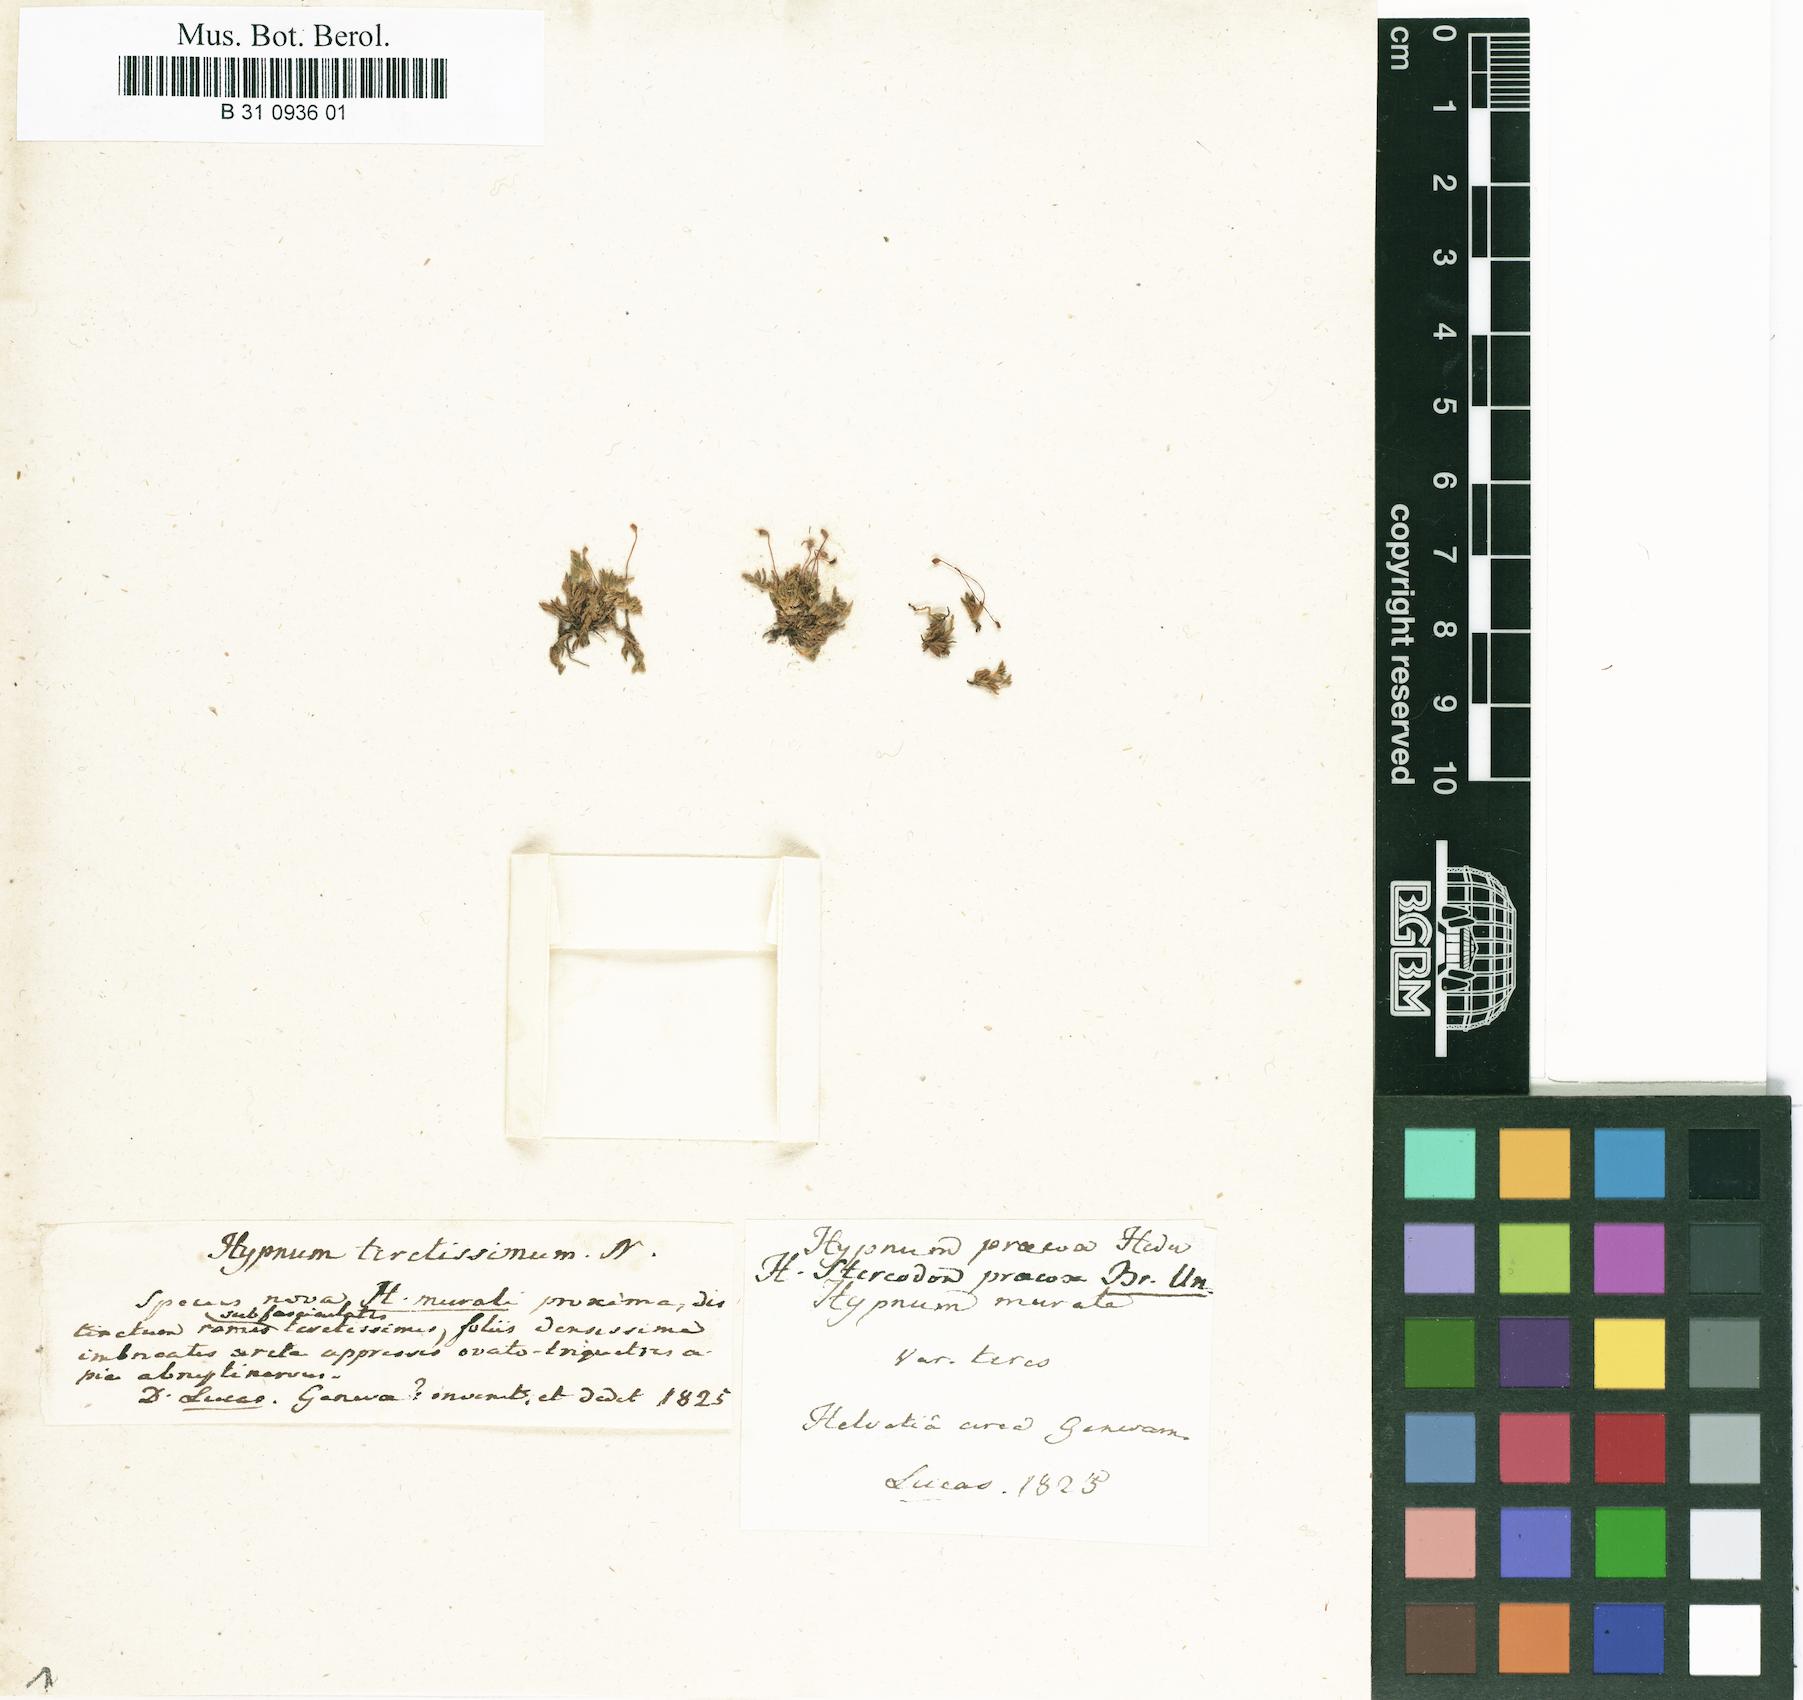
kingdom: Plantae
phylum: Bryophyta
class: Bryopsida
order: Hypnales
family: Brachytheciaceae
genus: Eurhynchiastrum
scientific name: Eurhynchiastrum pulchellum
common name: Elegant beaked moss
